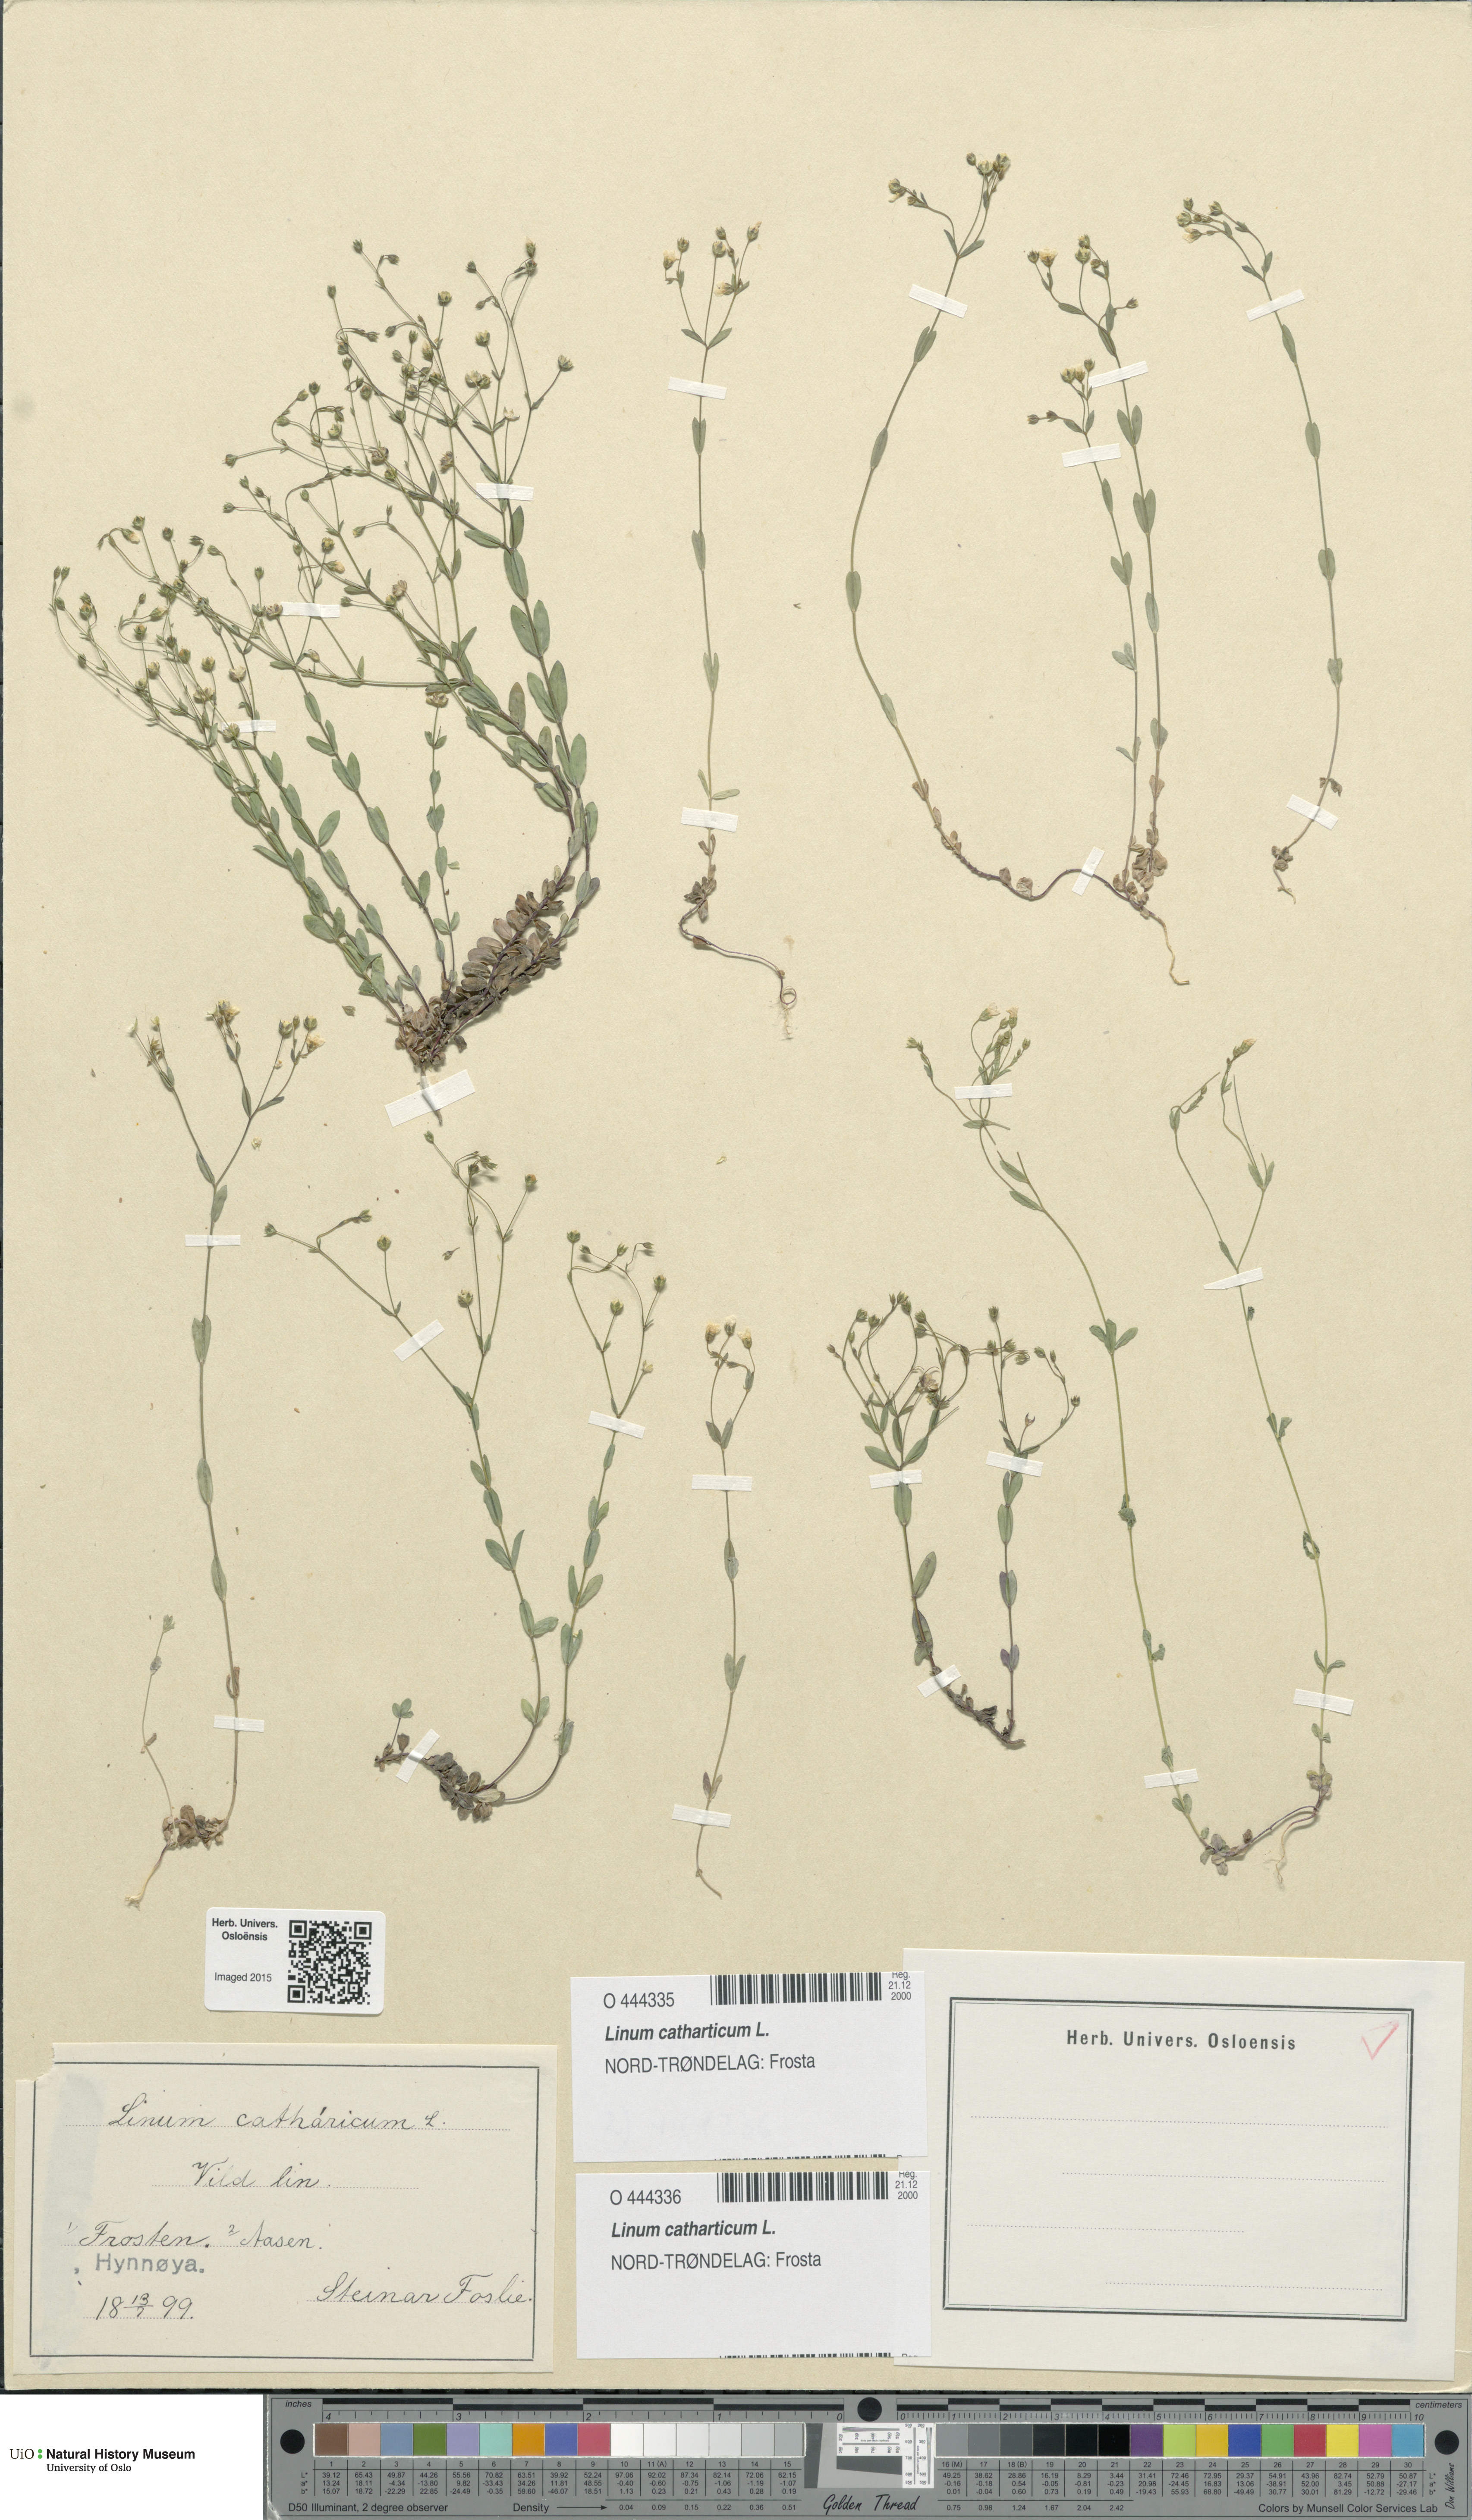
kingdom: Plantae
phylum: Tracheophyta
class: Magnoliopsida
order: Malpighiales
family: Linaceae
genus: Linum
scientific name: Linum catharticum
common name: Fairy flax
